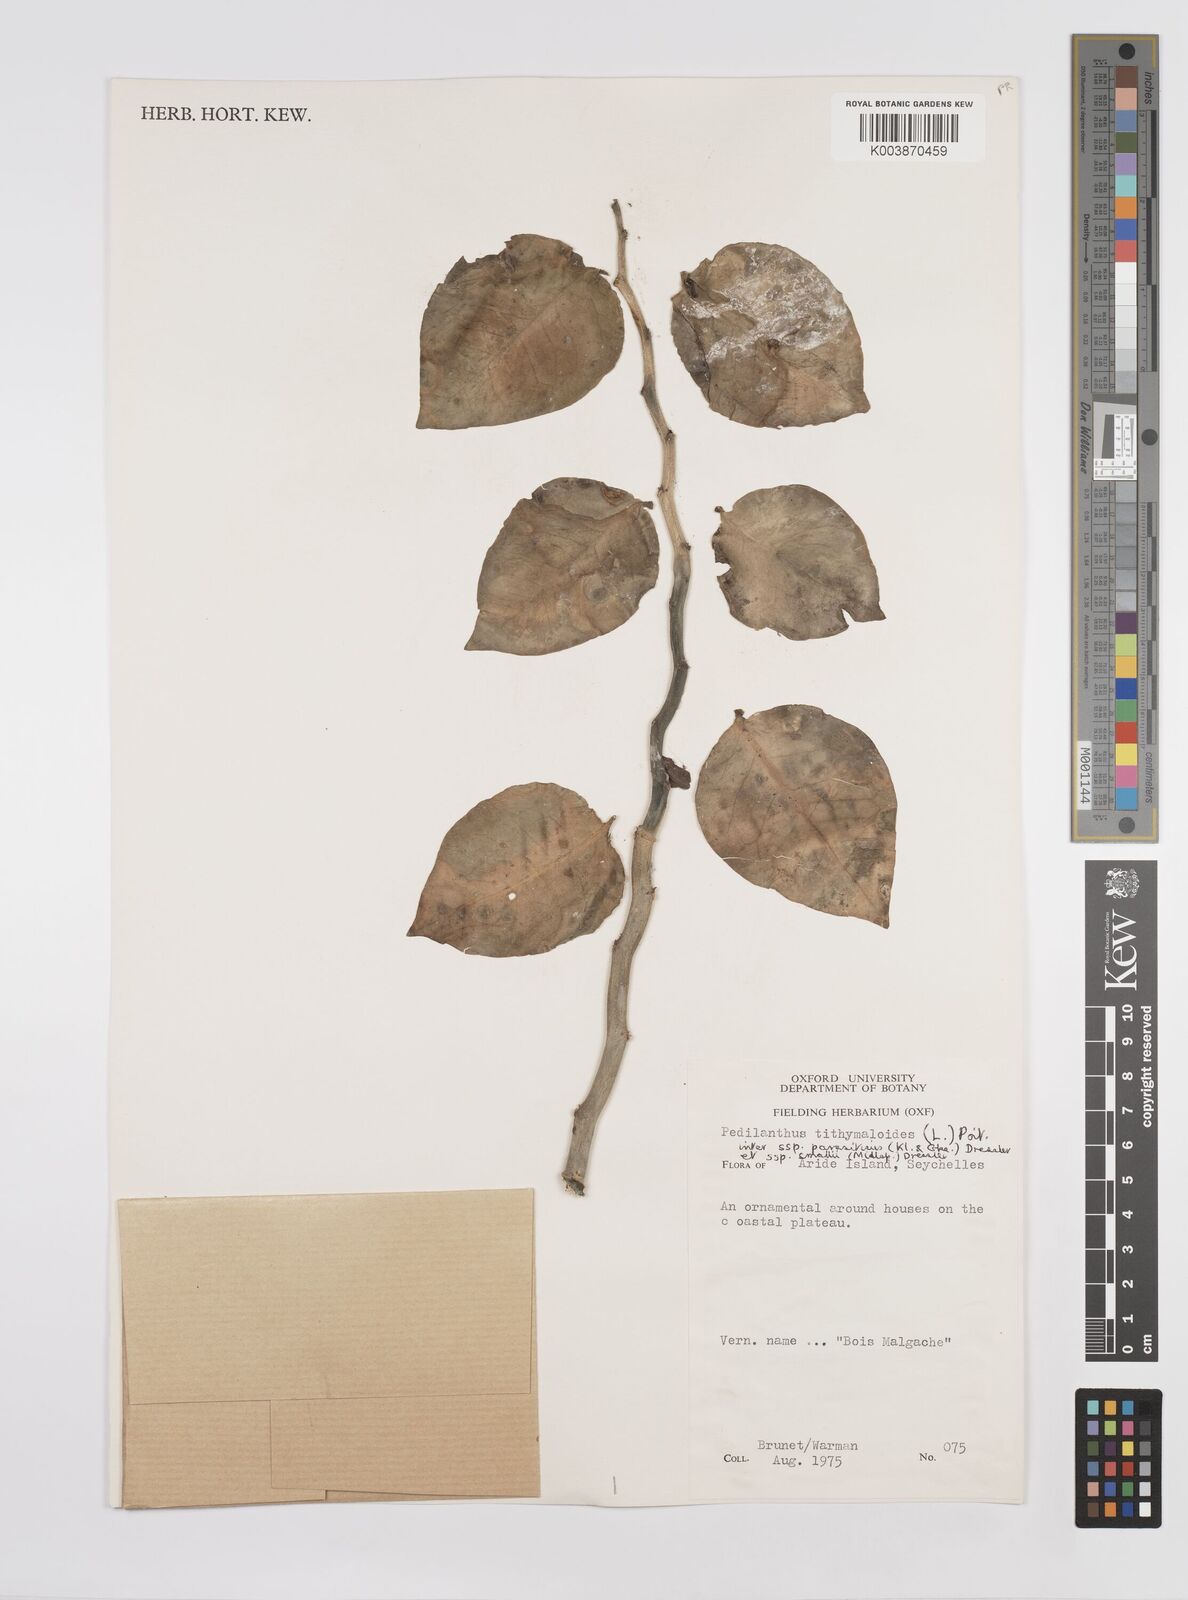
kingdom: Plantae
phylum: Tracheophyta
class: Magnoliopsida
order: Malpighiales
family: Euphorbiaceae
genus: Euphorbia
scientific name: Euphorbia tithymaloides
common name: Slipperplant
